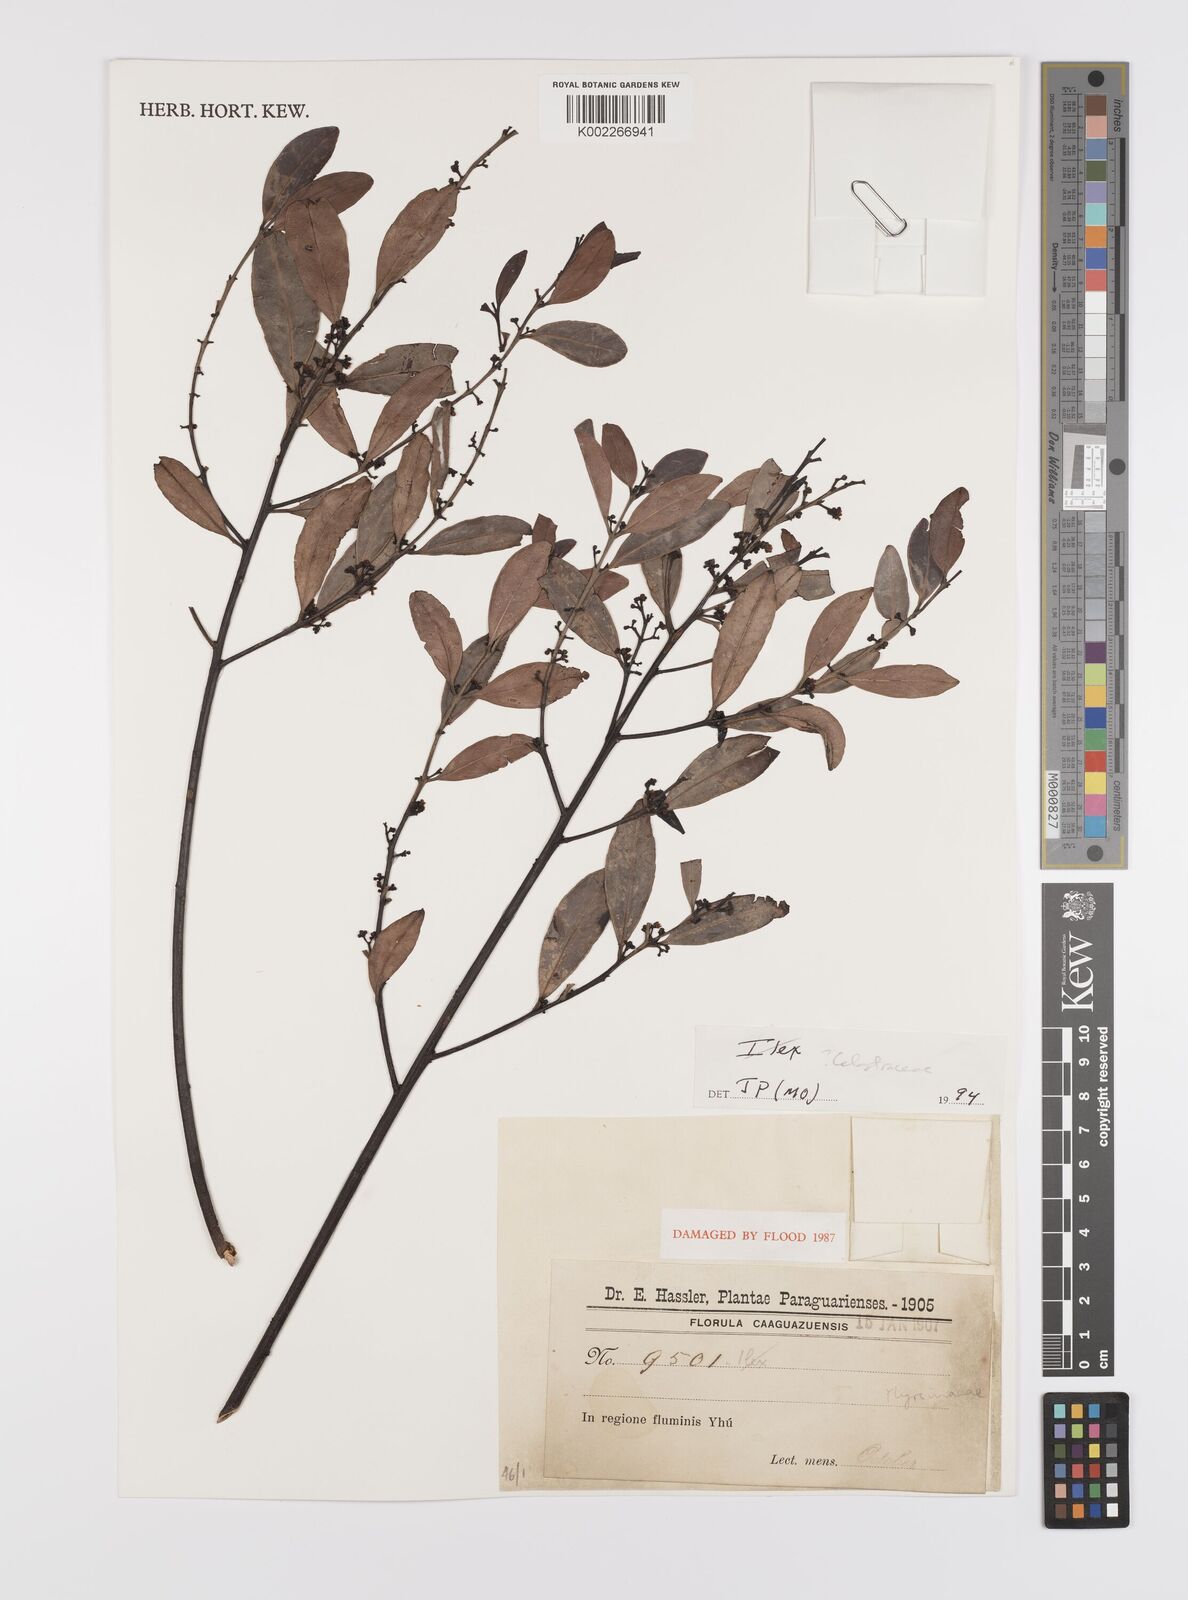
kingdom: Plantae
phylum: Tracheophyta
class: Magnoliopsida
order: Celastrales
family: Celastraceae
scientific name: Celastraceae
